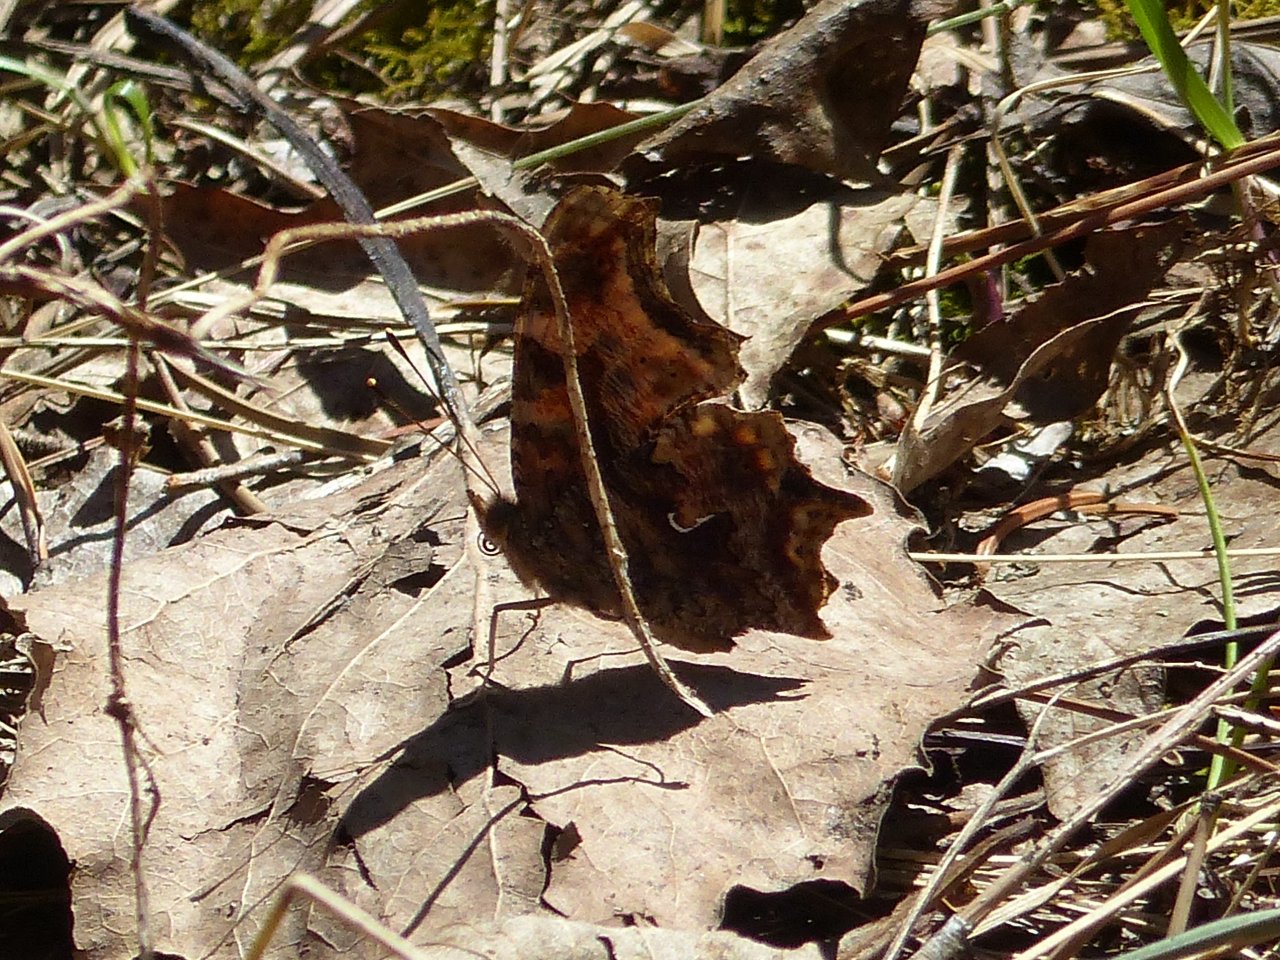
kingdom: Animalia
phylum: Arthropoda
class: Insecta
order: Lepidoptera
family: Nymphalidae
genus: Polygonia
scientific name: Polygonia comma
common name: Eastern Comma
